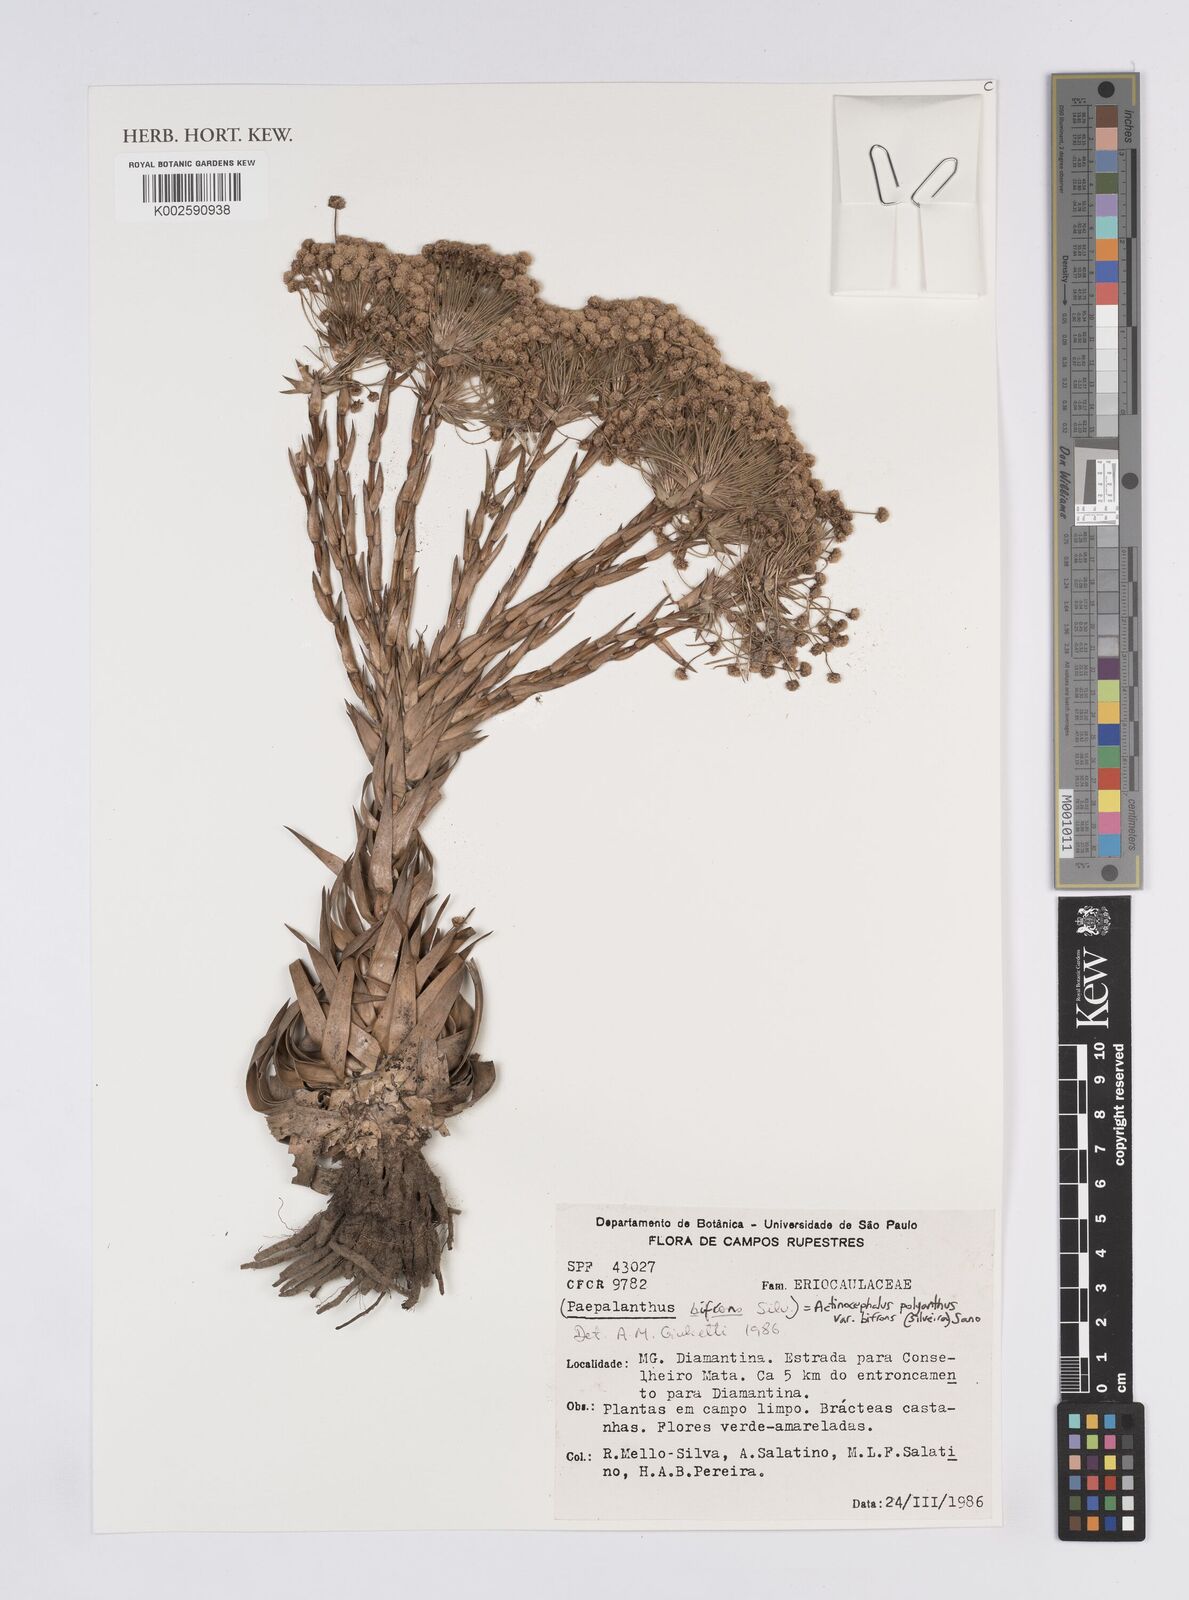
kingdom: Plantae
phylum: Tracheophyta
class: Liliopsida
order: Poales
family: Eriocaulaceae
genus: Paepalanthus
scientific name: Paepalanthus polyanthus
